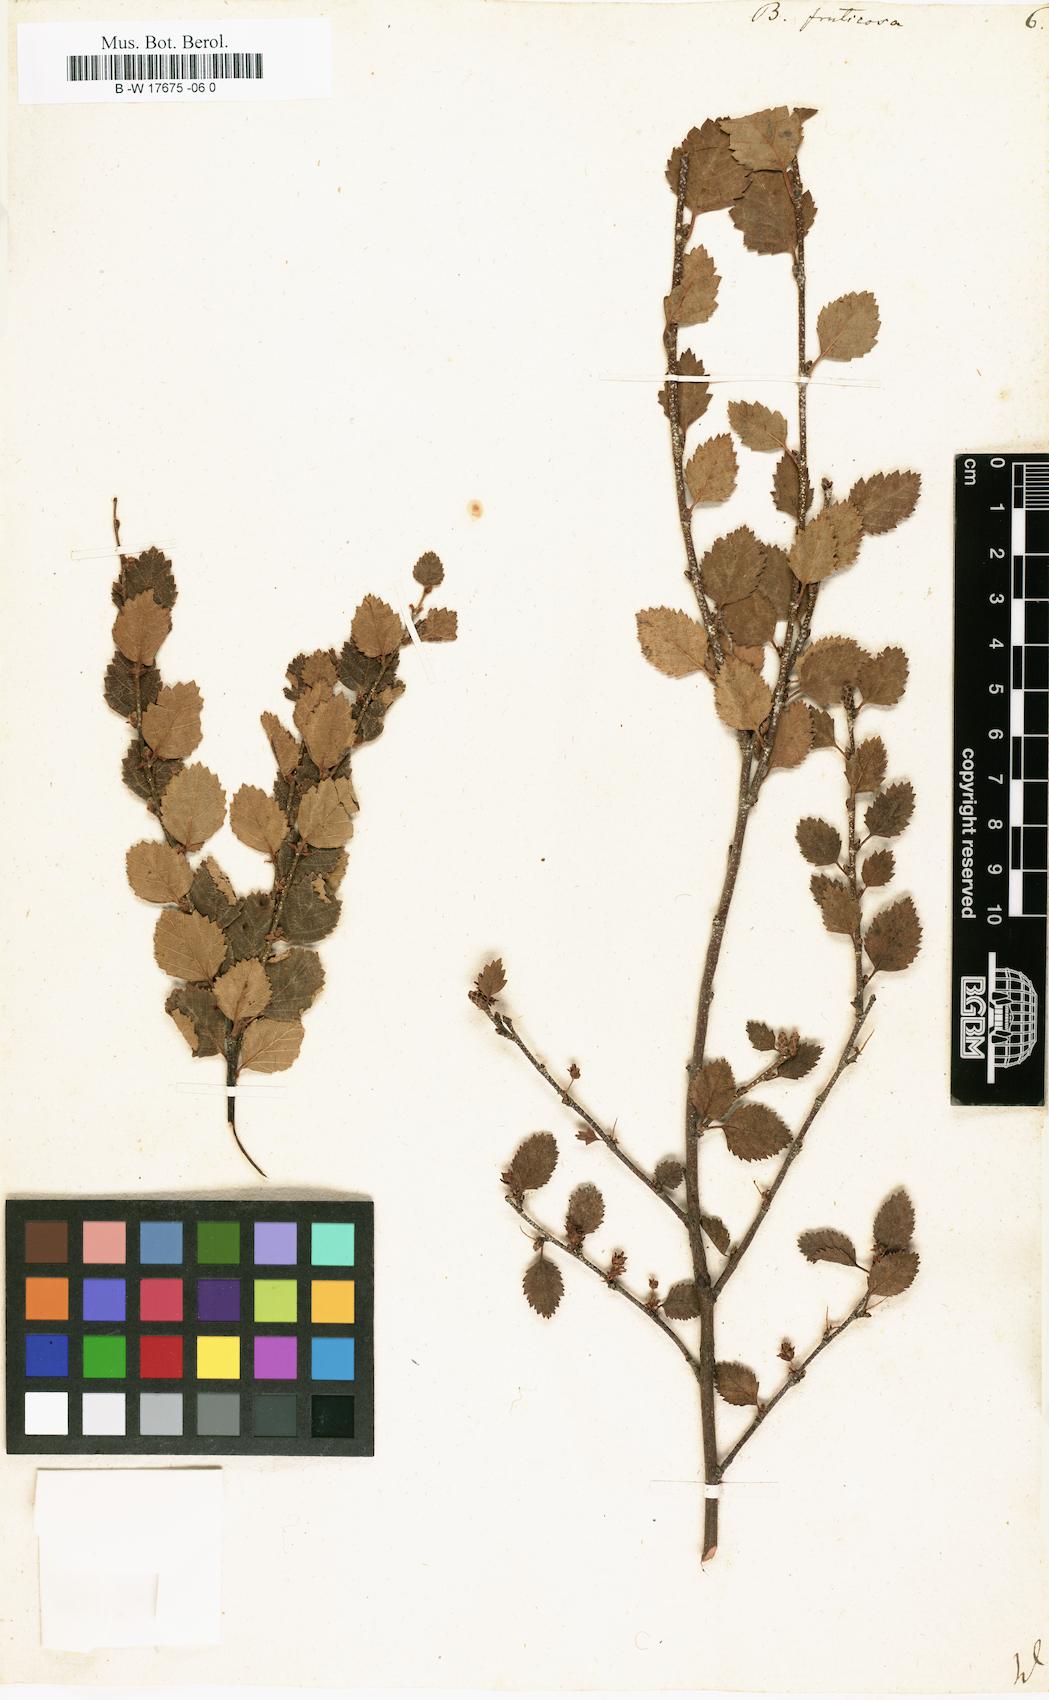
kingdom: Plantae
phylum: Tracheophyta
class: Magnoliopsida
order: Fagales
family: Betulaceae
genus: Betula
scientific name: Betula fruticosa
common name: Japanese bog birch
